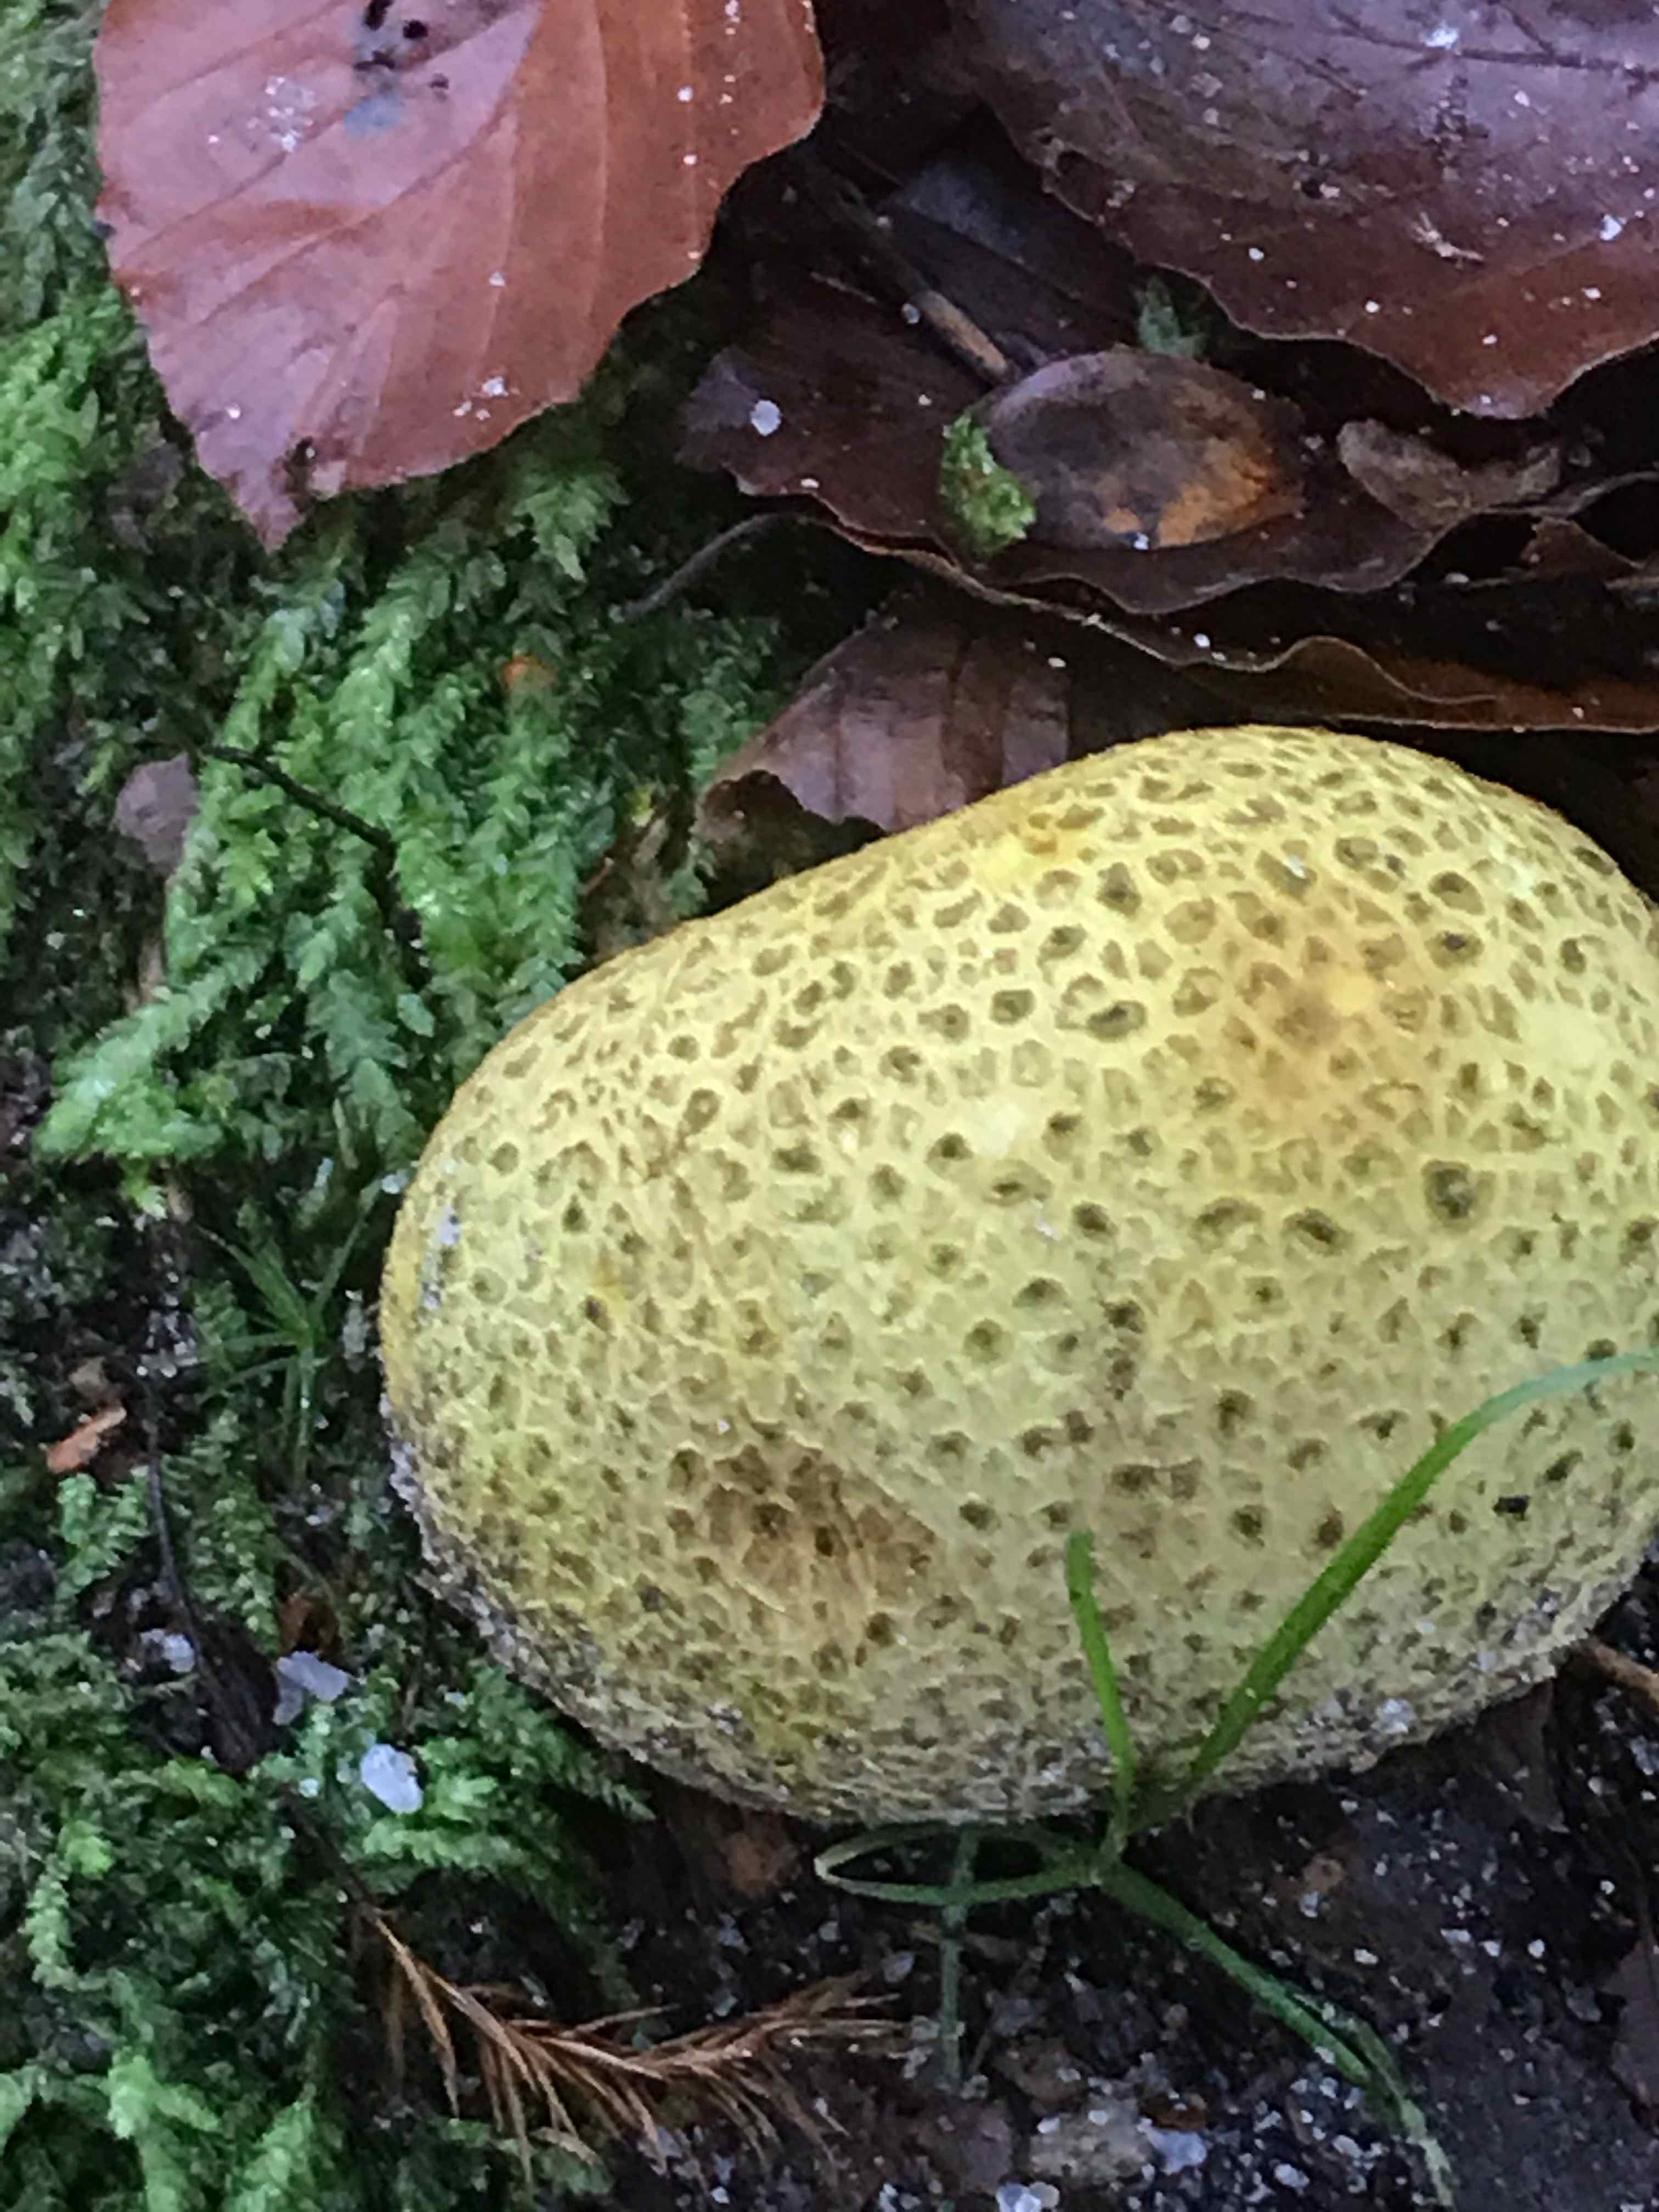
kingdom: Fungi
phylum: Basidiomycota
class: Agaricomycetes
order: Boletales
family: Sclerodermataceae
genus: Scleroderma
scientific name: Scleroderma citrinum
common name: almindelig bruskbold
